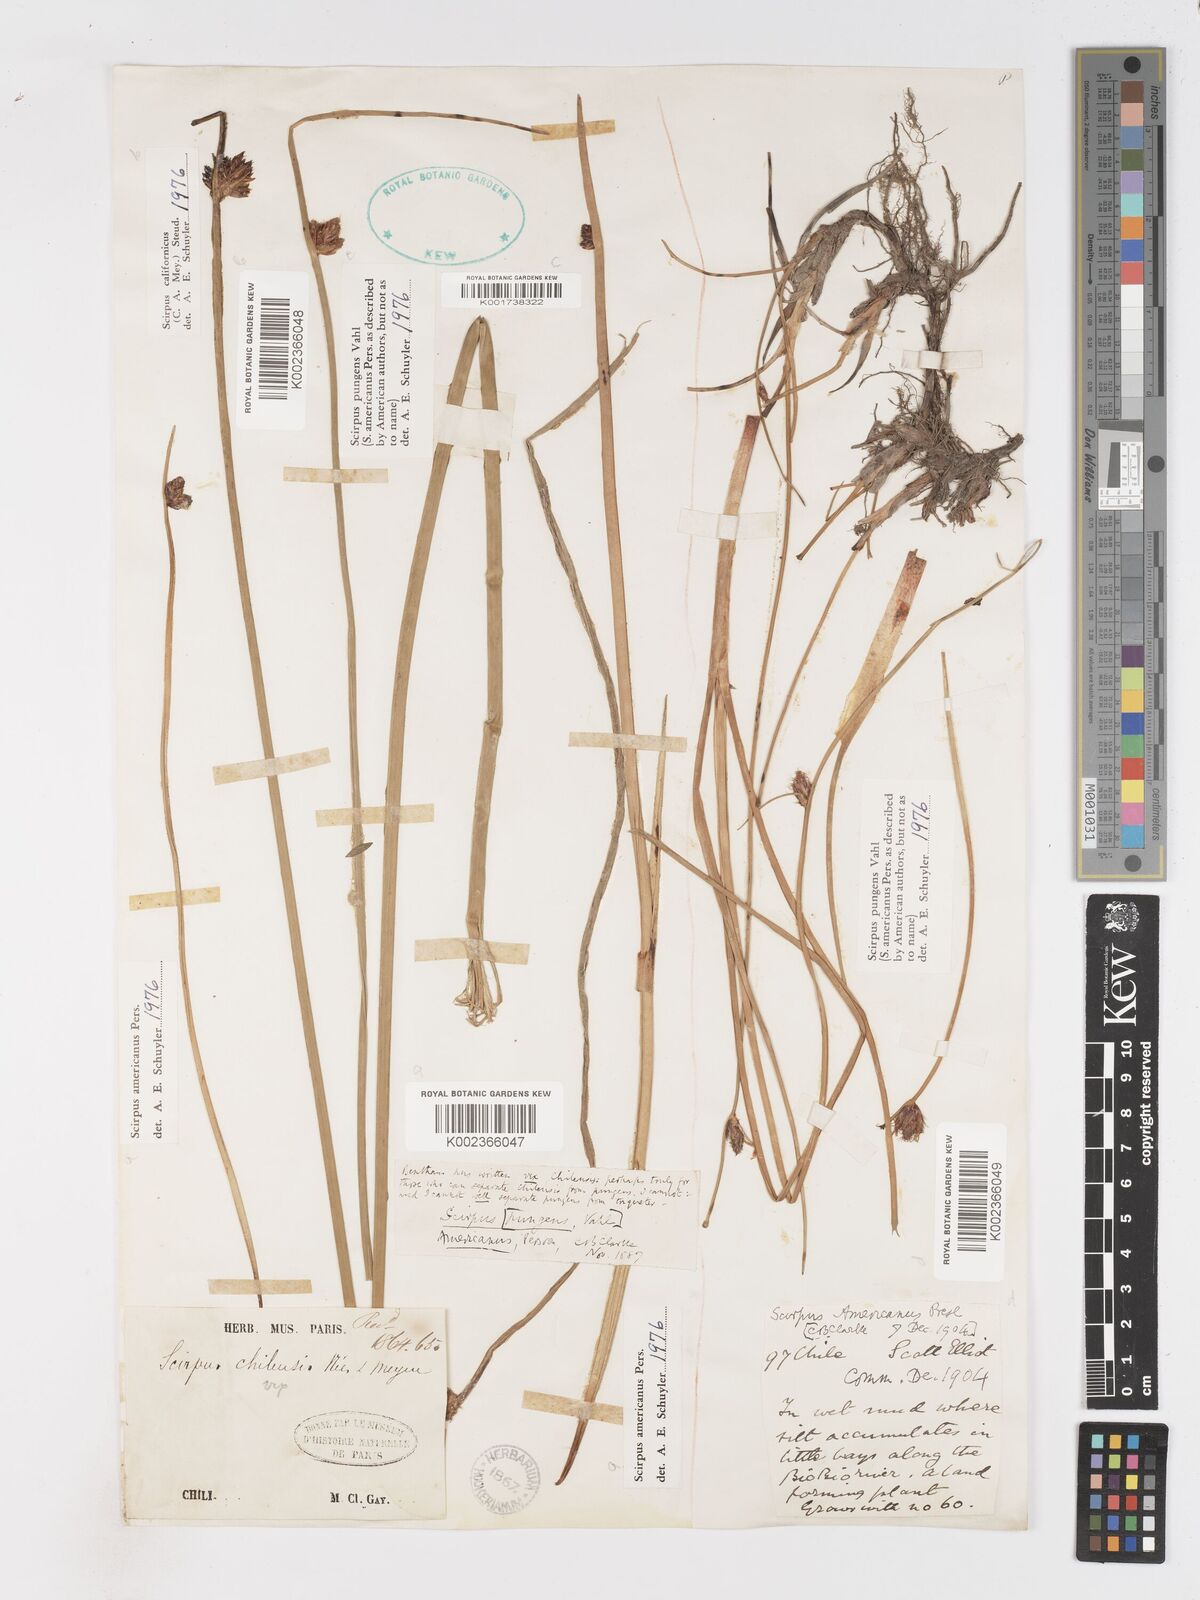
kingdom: Plantae
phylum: Tracheophyta
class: Liliopsida
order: Poales
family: Cyperaceae
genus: Schoenoplectus
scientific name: Schoenoplectus americanus
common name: American three-square bulrush
